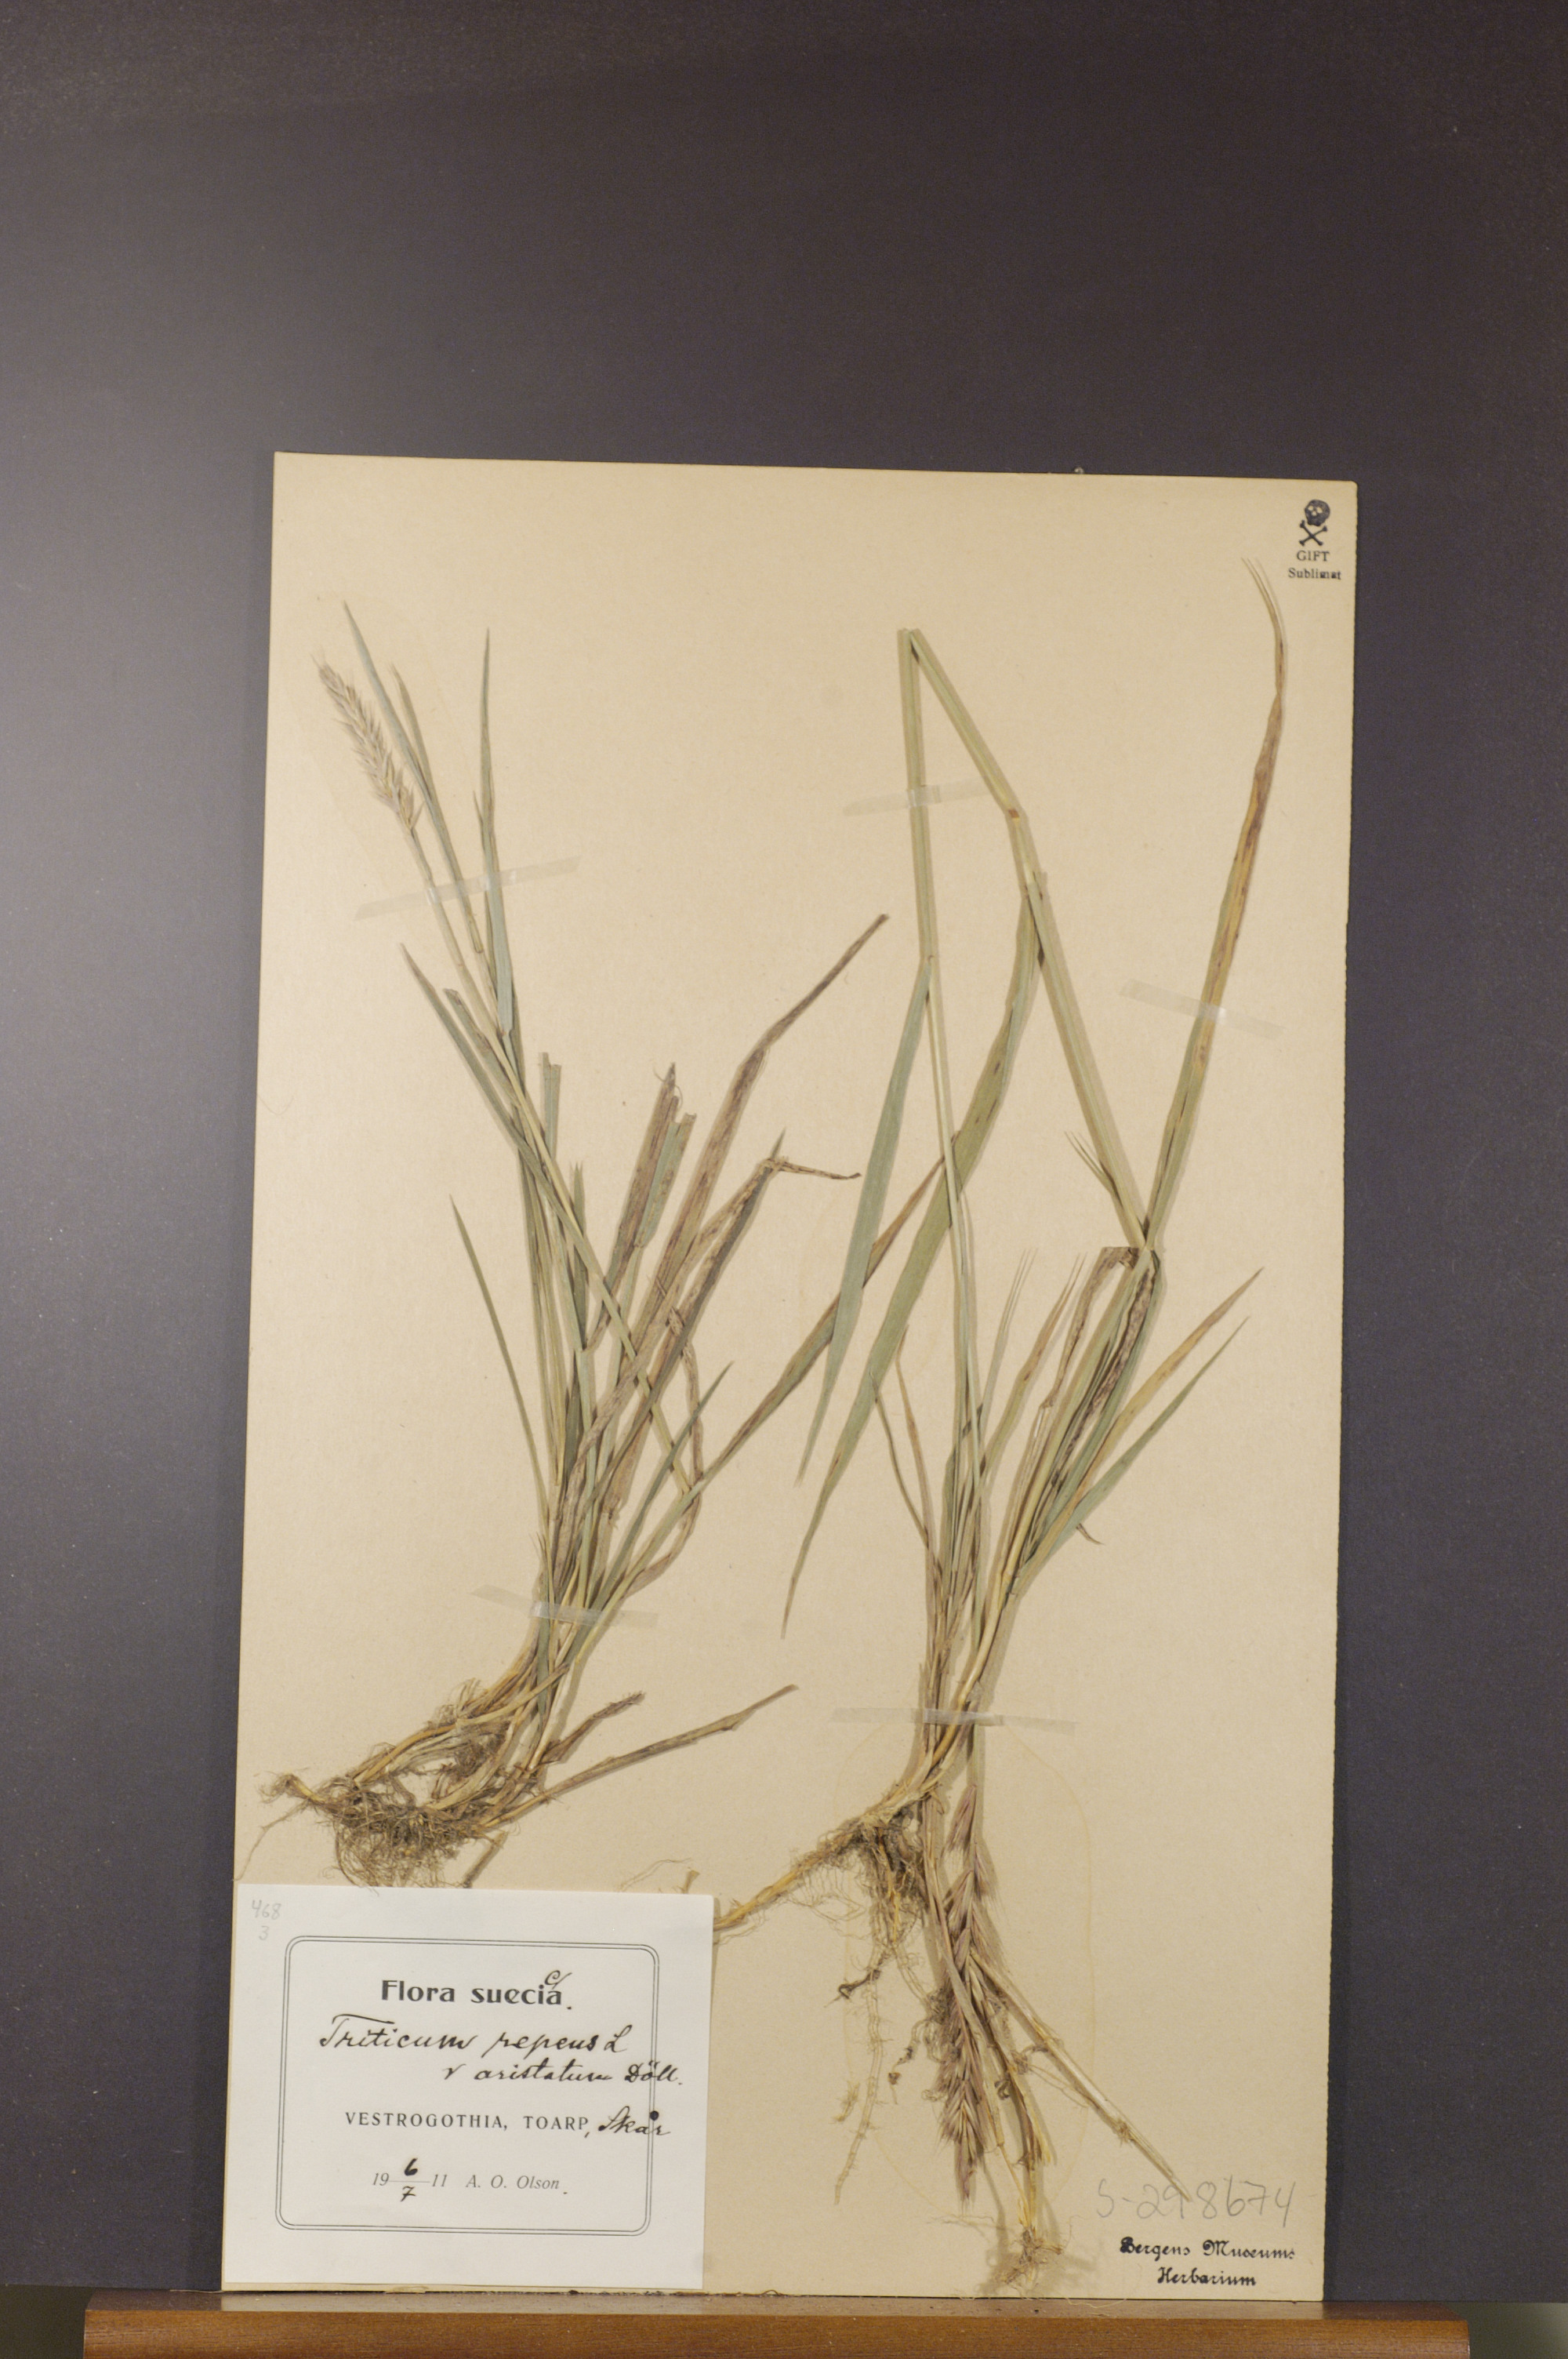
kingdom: Plantae
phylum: Tracheophyta
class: Liliopsida
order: Poales
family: Poaceae
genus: Elymus
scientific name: Elymus repens
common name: Quackgrass
